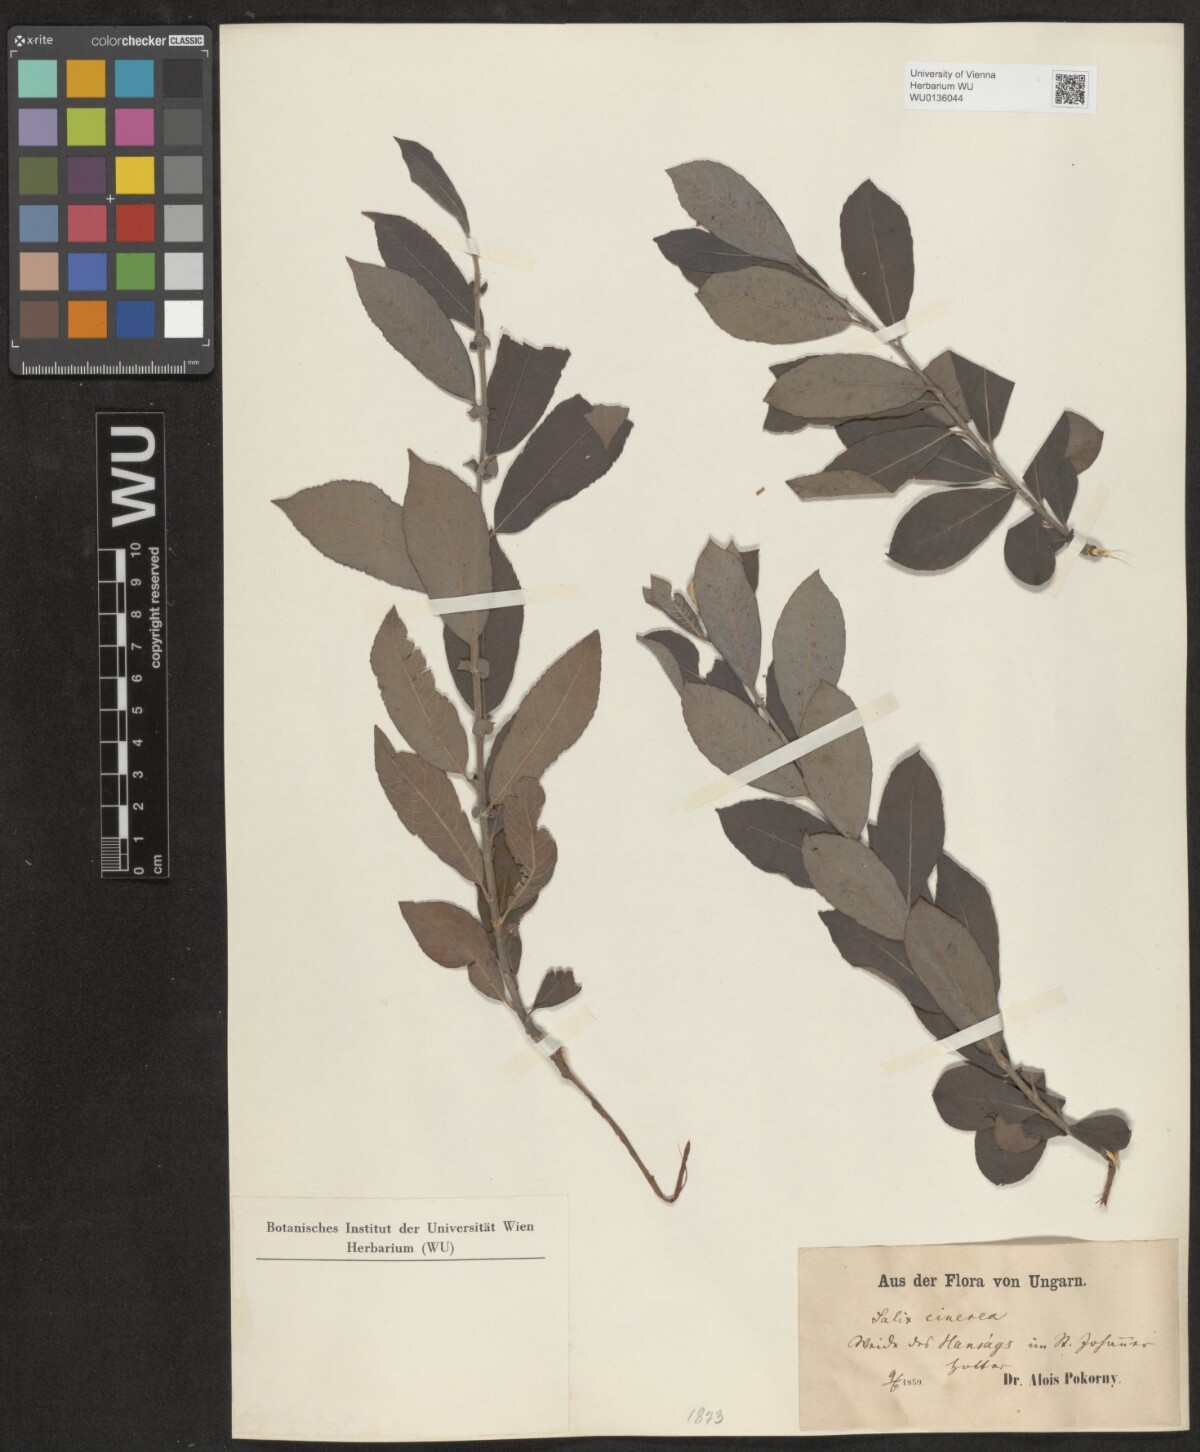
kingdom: Plantae
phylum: Tracheophyta
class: Magnoliopsida
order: Malpighiales
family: Salicaceae
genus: Salix
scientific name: Salix cinerea
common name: Common sallow
